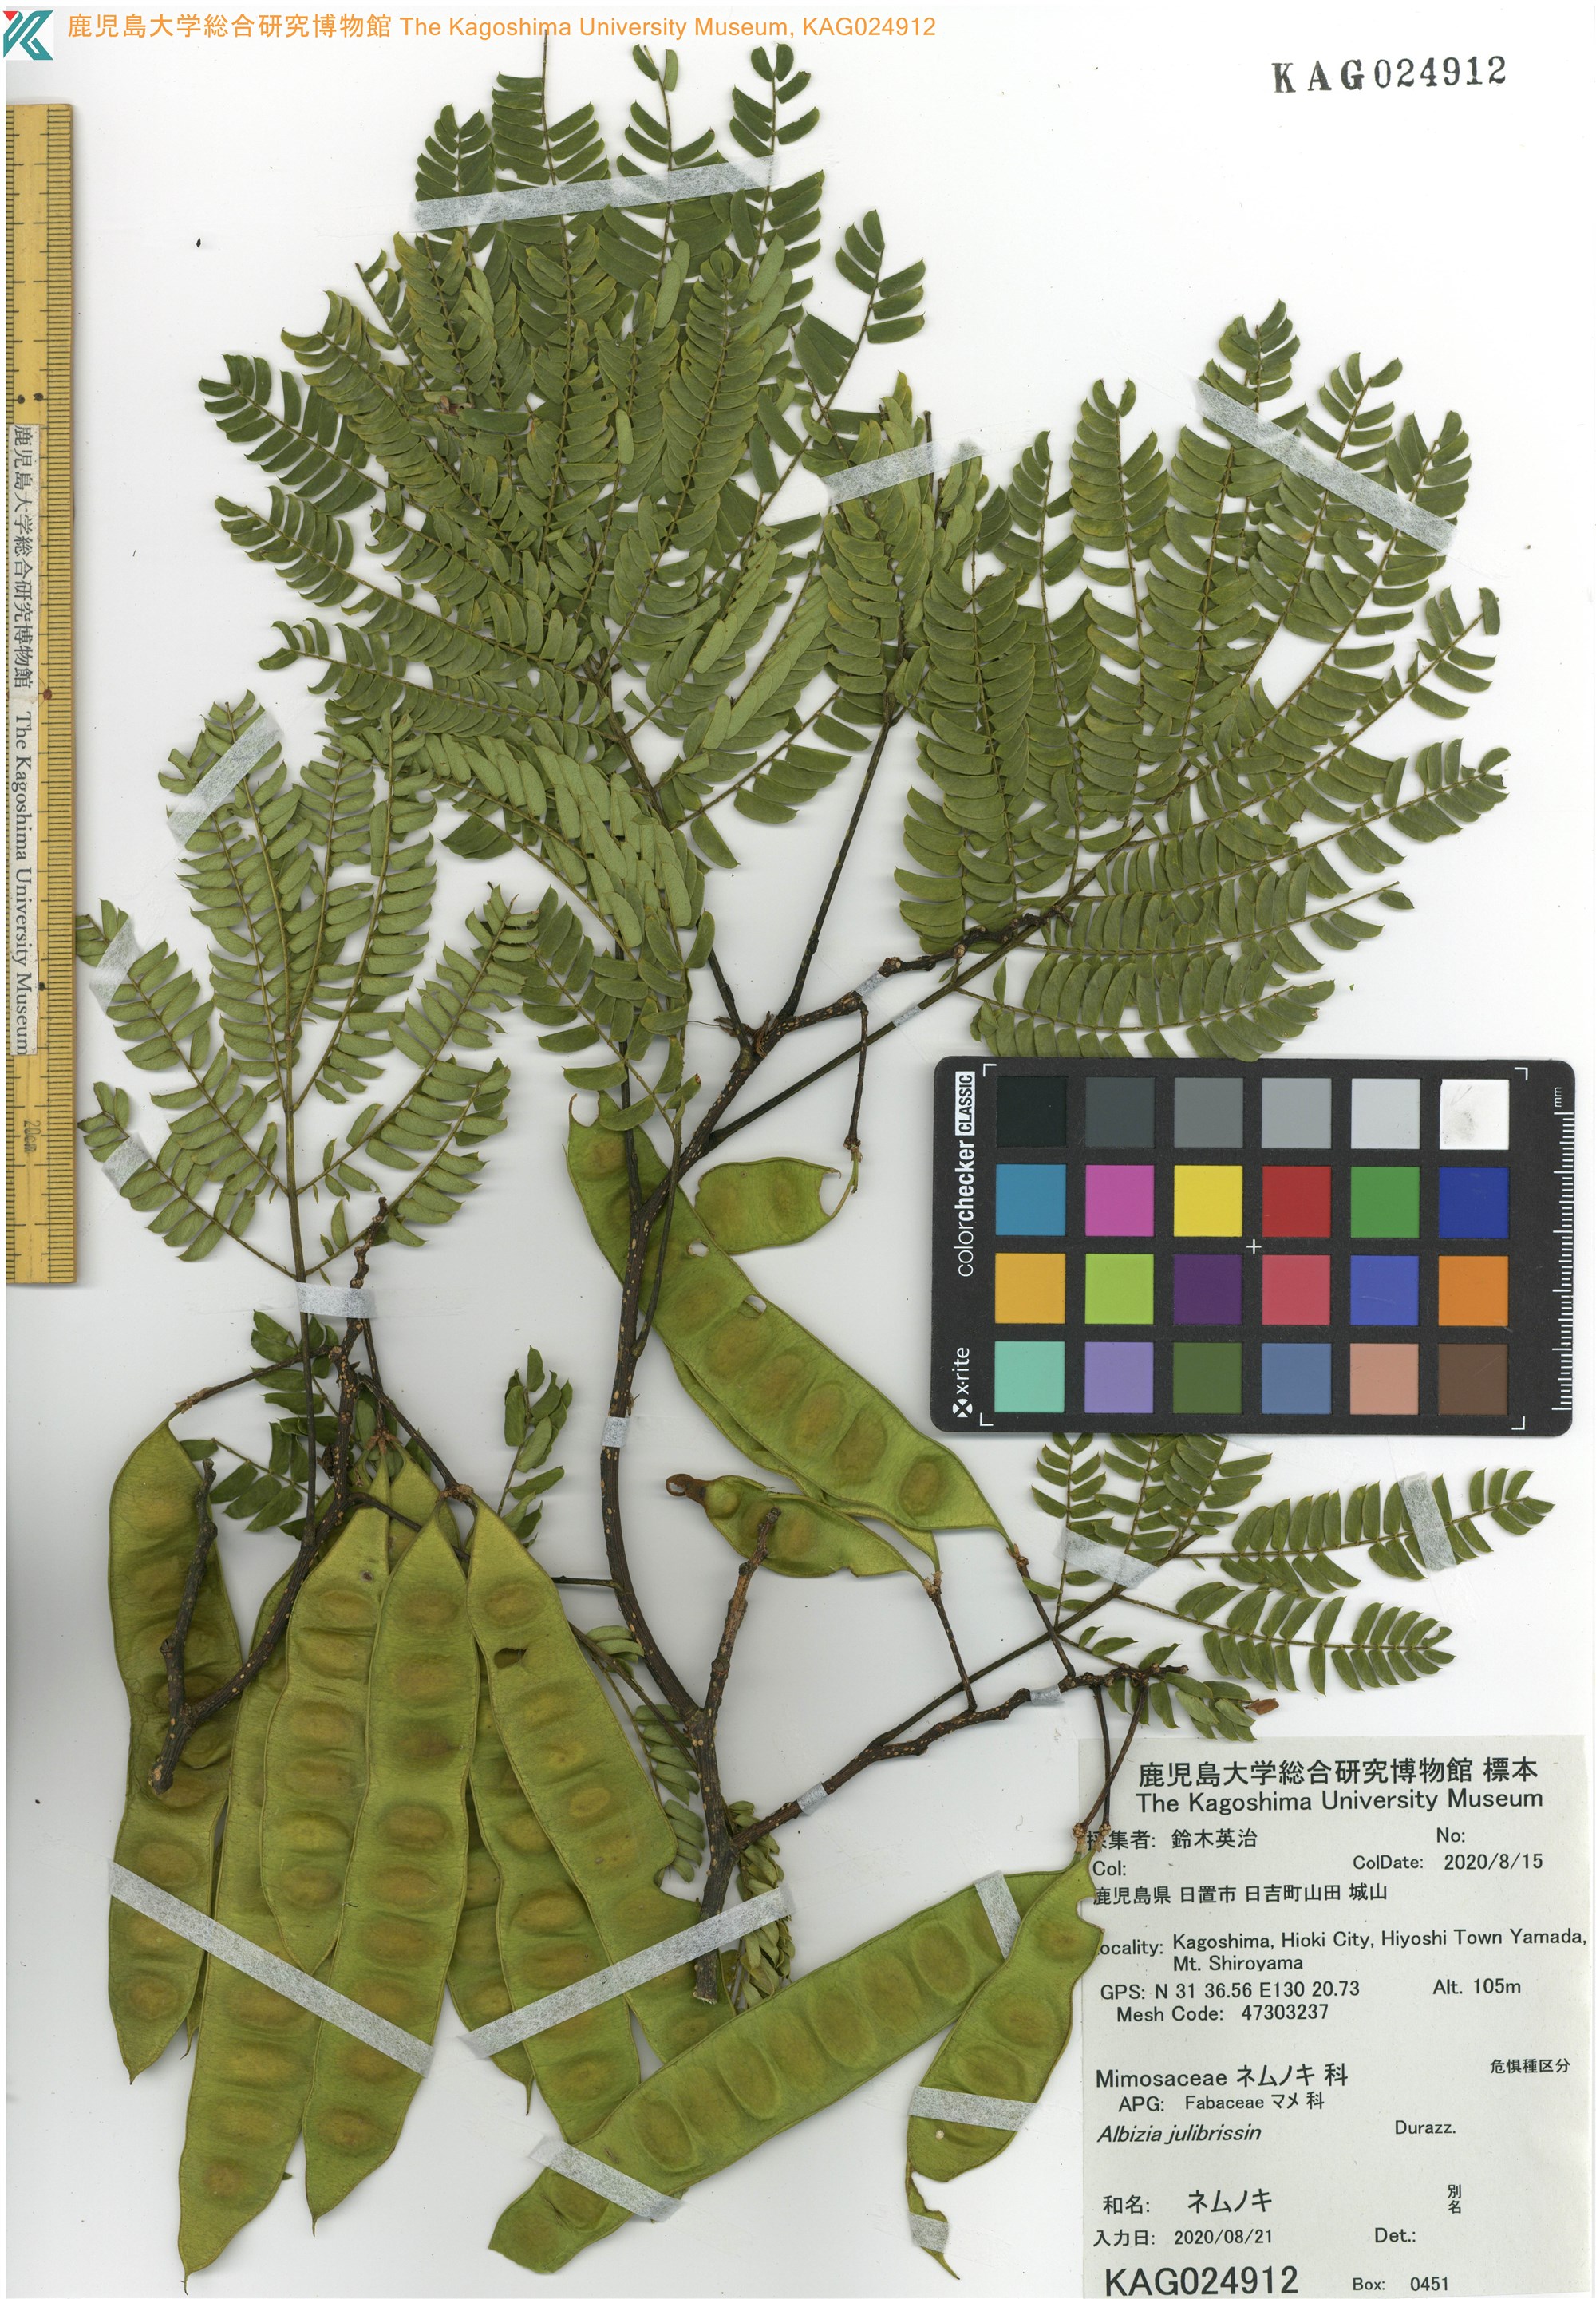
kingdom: Plantae
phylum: Tracheophyta
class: Magnoliopsida
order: Fabales
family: Fabaceae
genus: Albizia
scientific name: Albizia julibrissin
